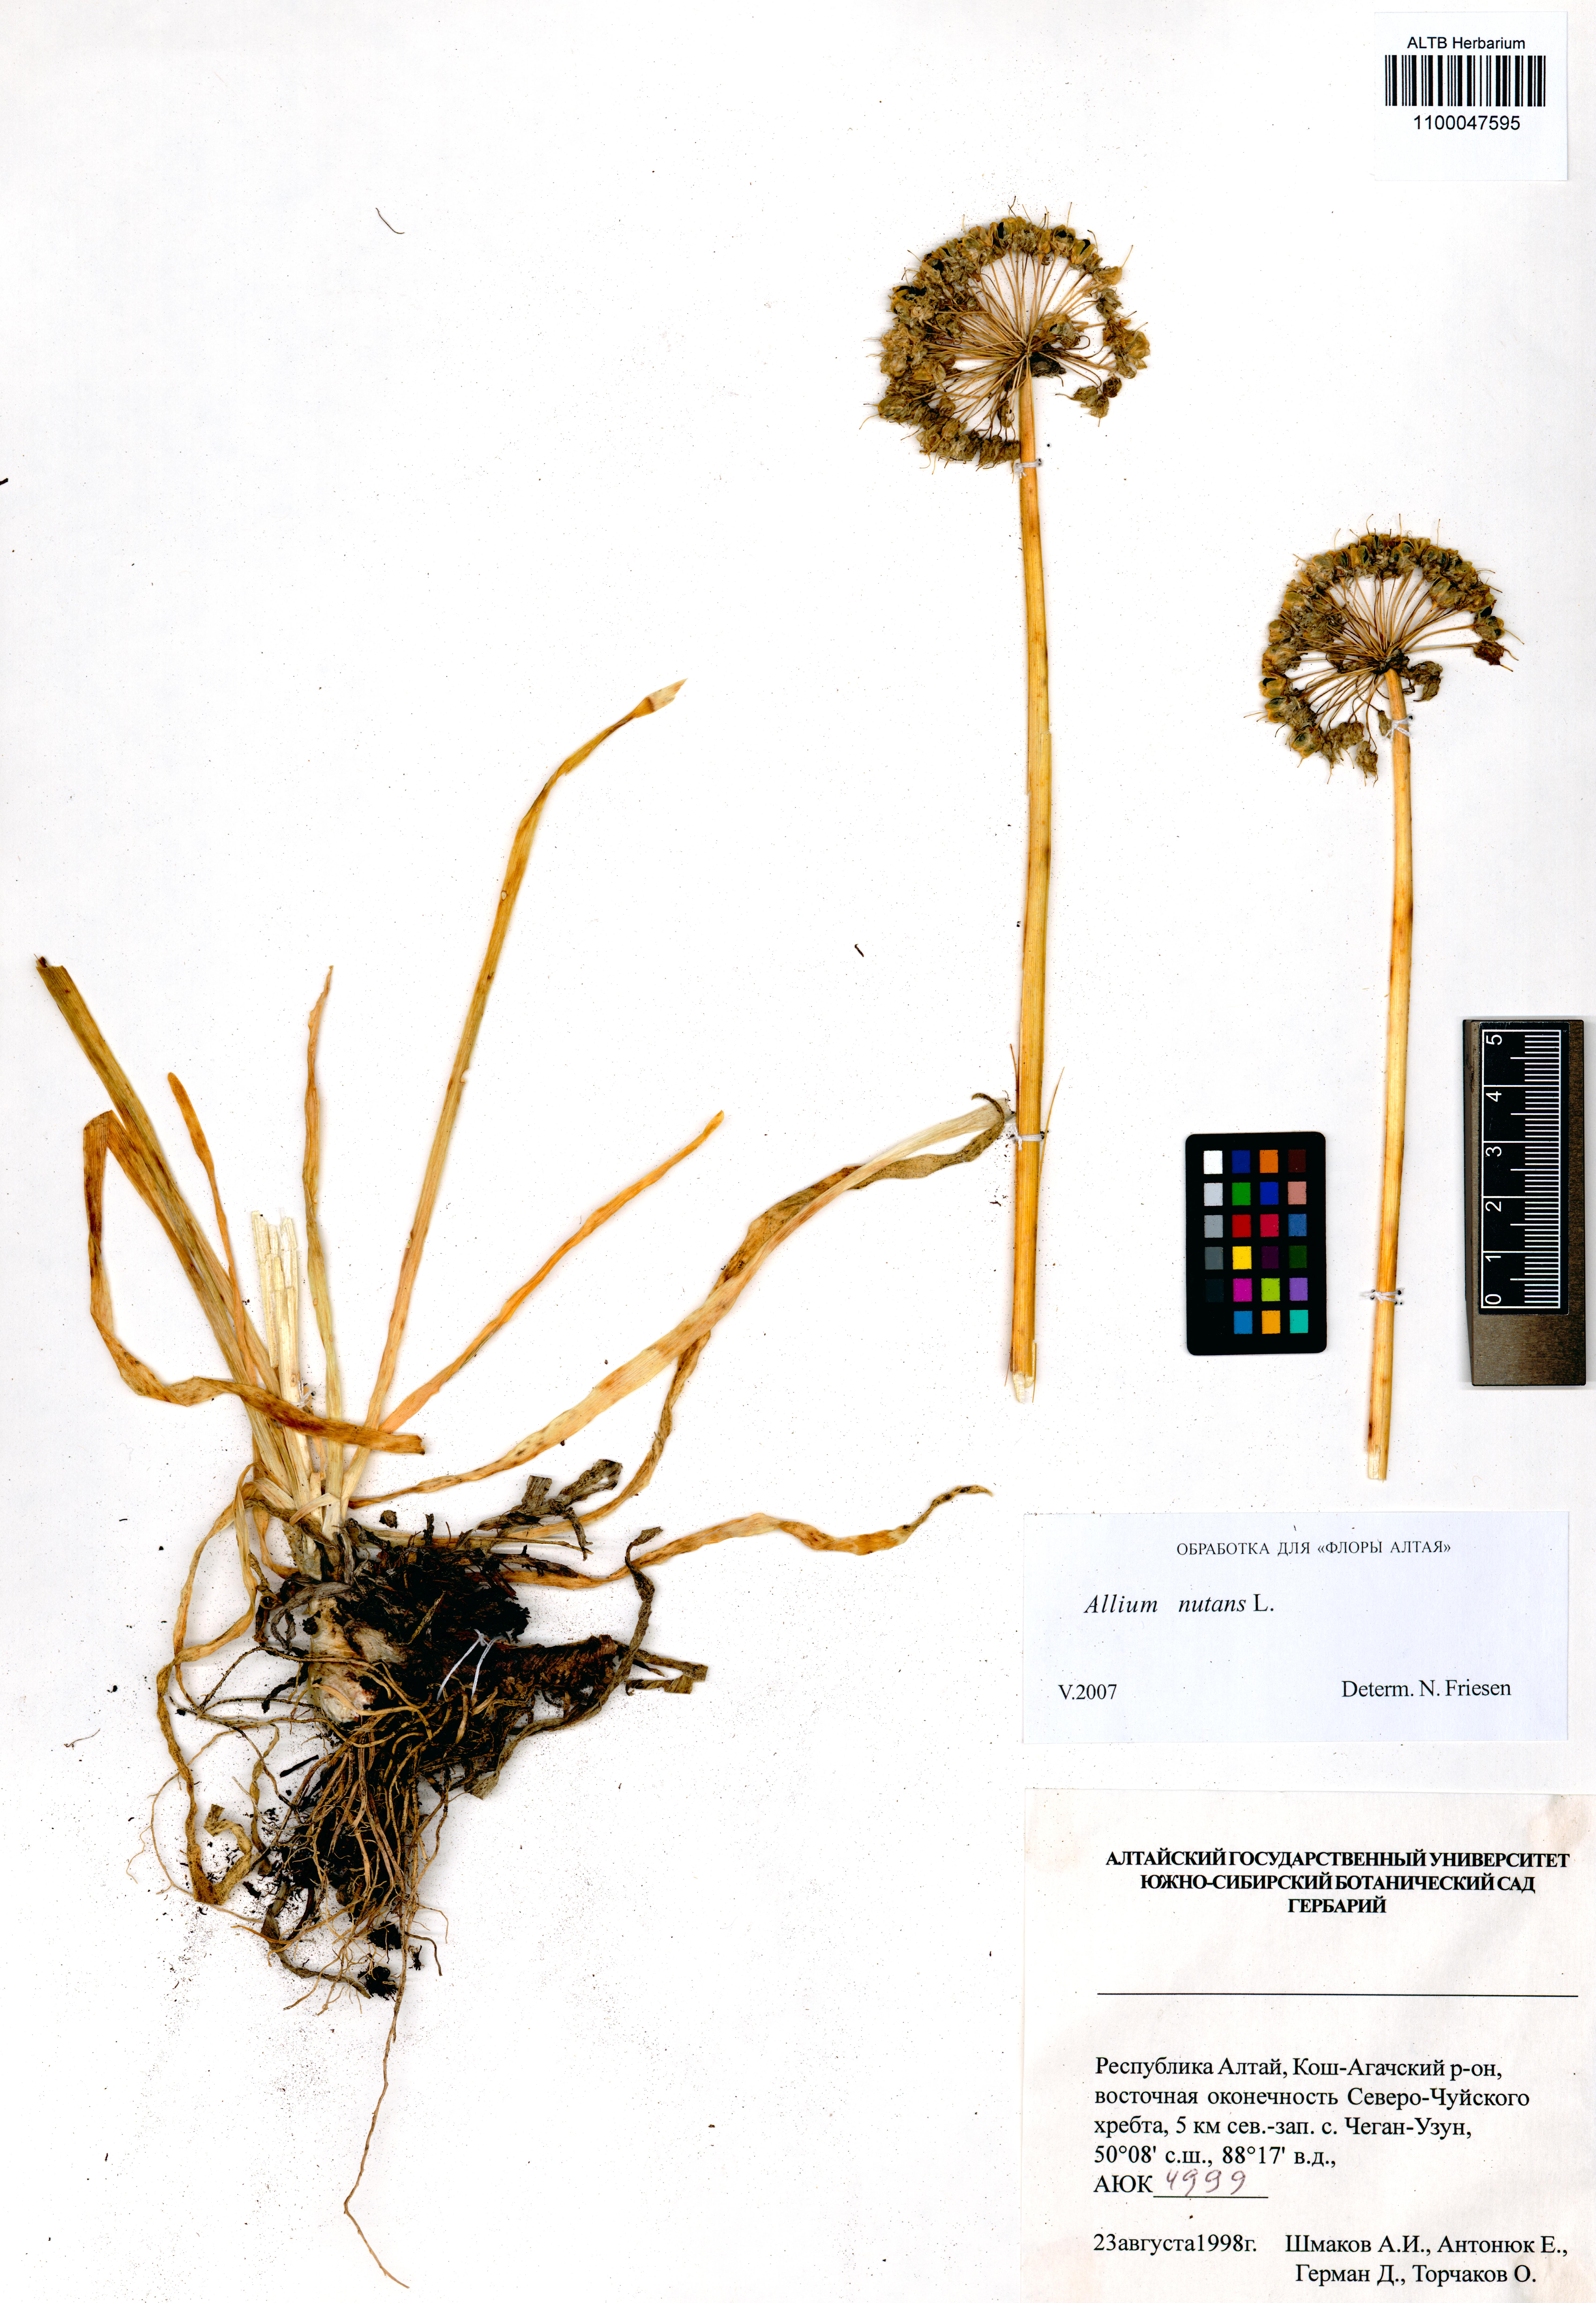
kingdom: Plantae
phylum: Tracheophyta
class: Liliopsida
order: Asparagales
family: Amaryllidaceae
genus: Allium
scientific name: Allium nutans
